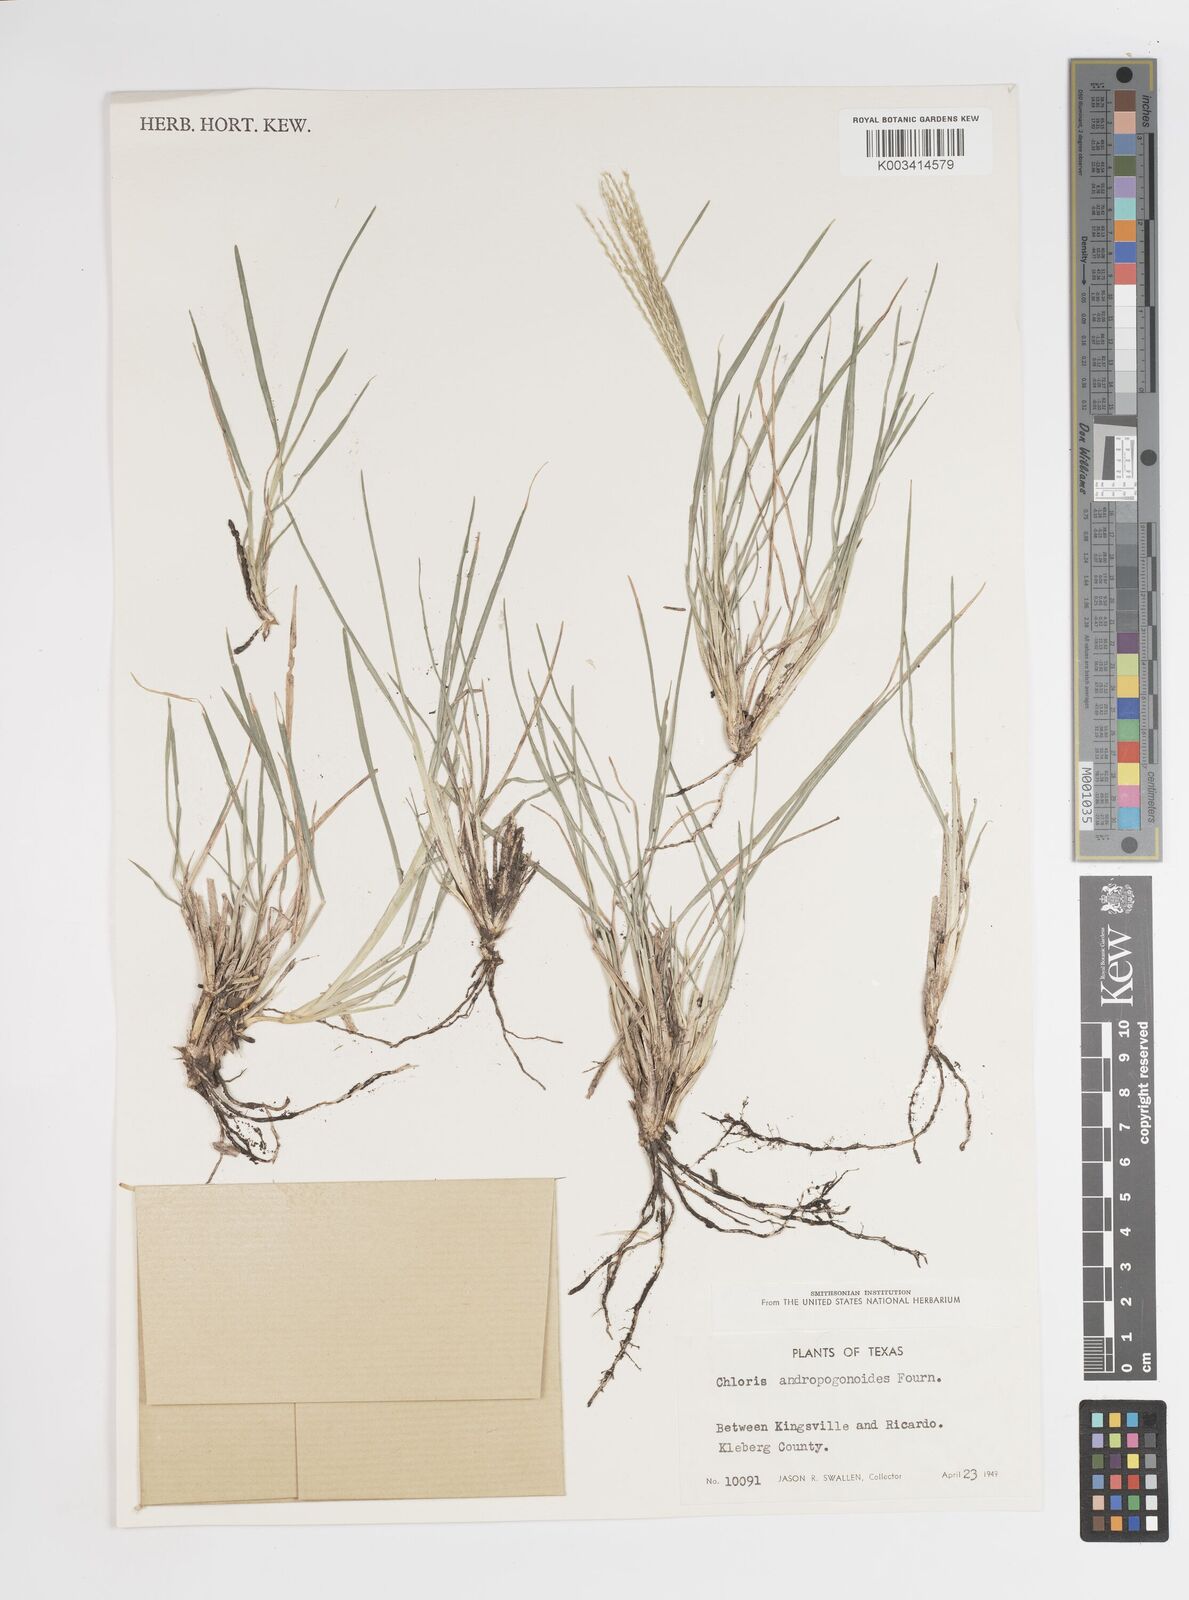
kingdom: Plantae
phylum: Tracheophyta
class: Liliopsida
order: Poales
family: Poaceae
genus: Chloris
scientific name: Chloris andropogonoides
